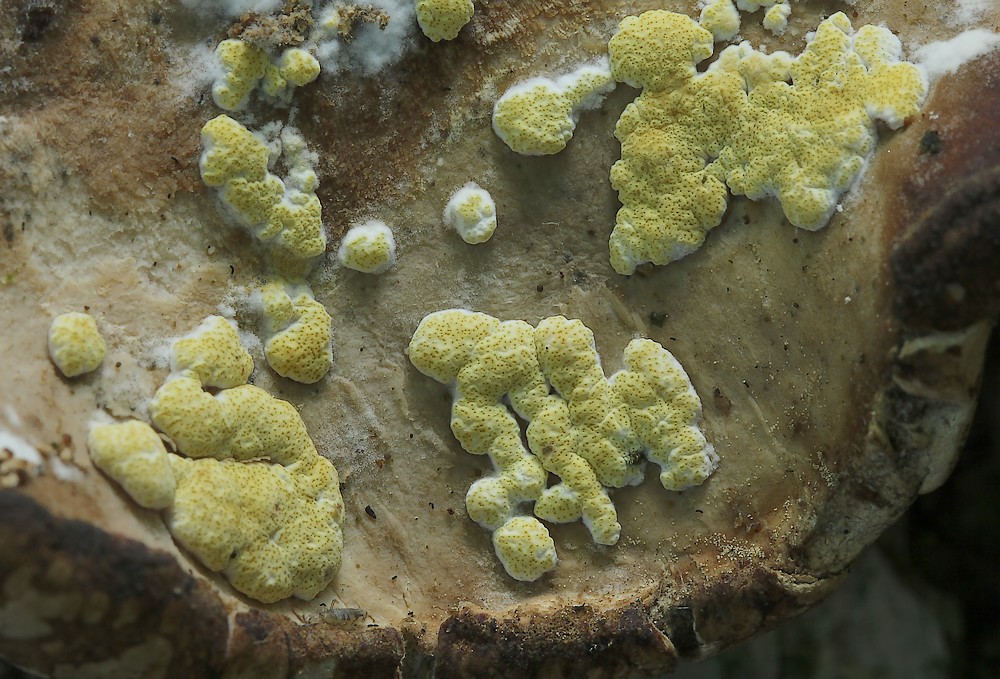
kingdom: Fungi
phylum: Ascomycota
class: Sordariomycetes
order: Hypocreales
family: Hypocreaceae
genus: Trichoderma
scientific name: Trichoderma pulvinatum
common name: snyltende kødkerne
